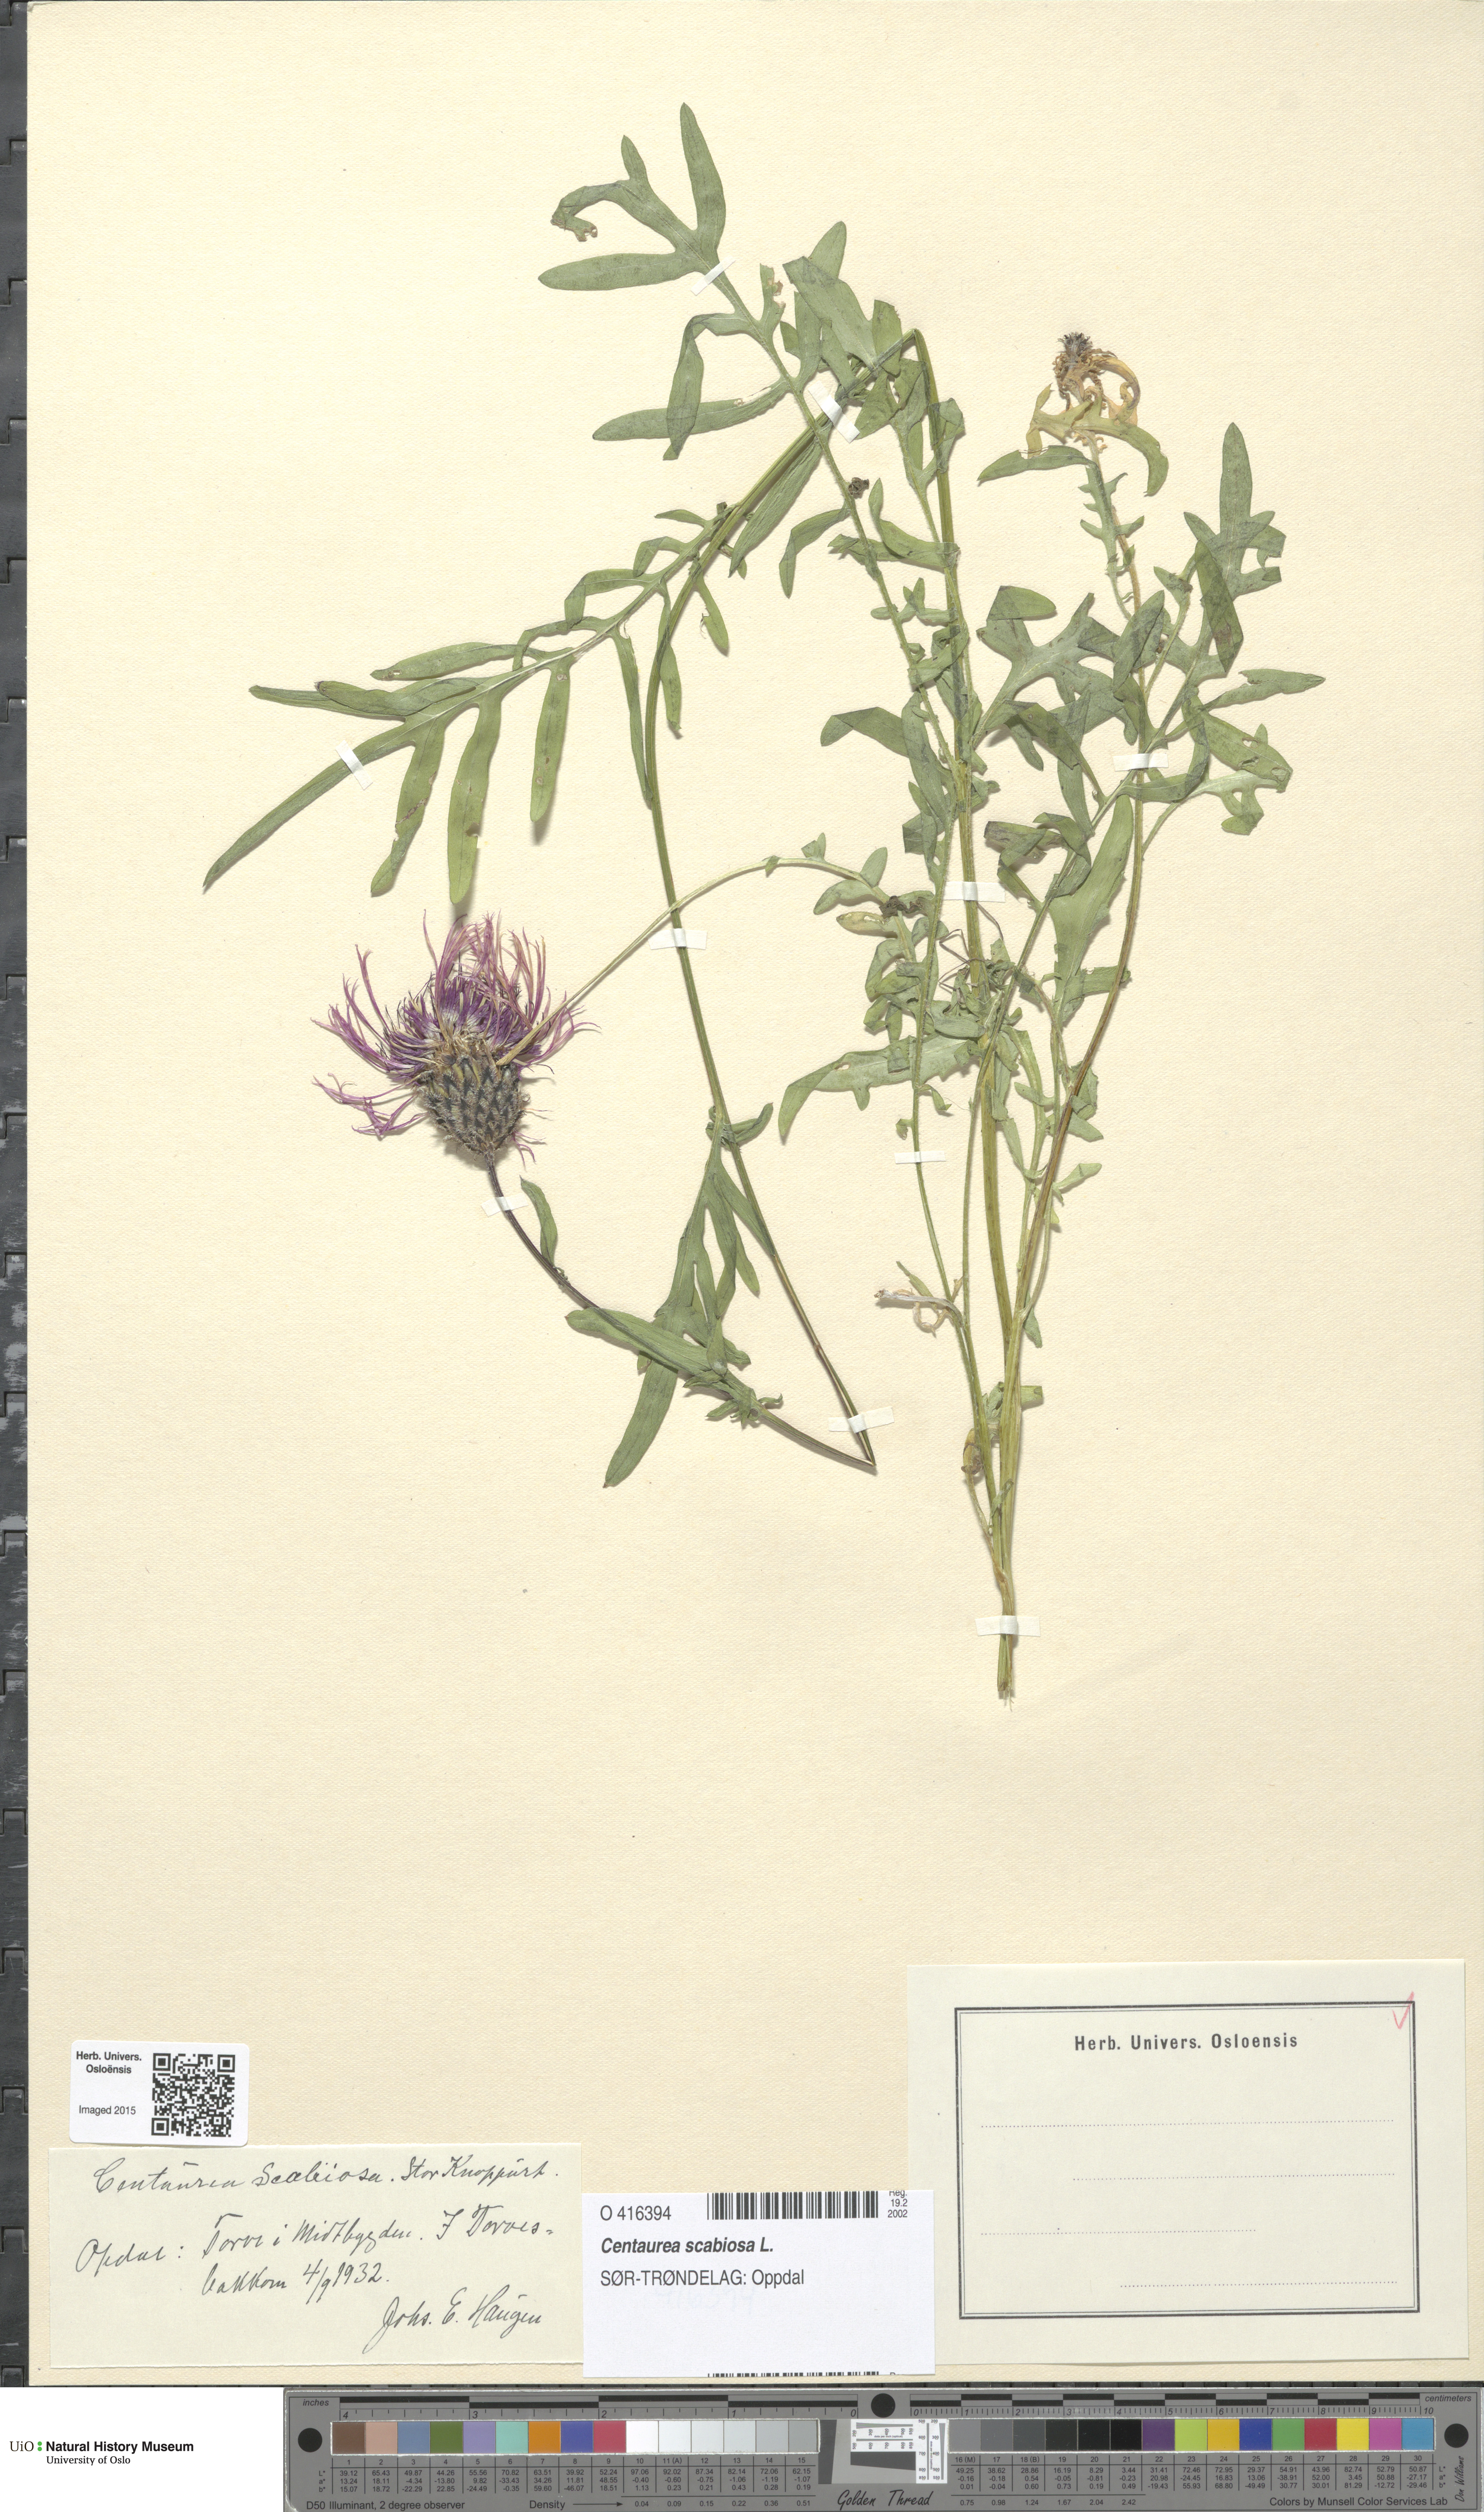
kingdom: Plantae
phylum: Tracheophyta
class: Magnoliopsida
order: Asterales
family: Asteraceae
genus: Centaurea
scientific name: Centaurea scabiosa
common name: Greater knapweed
